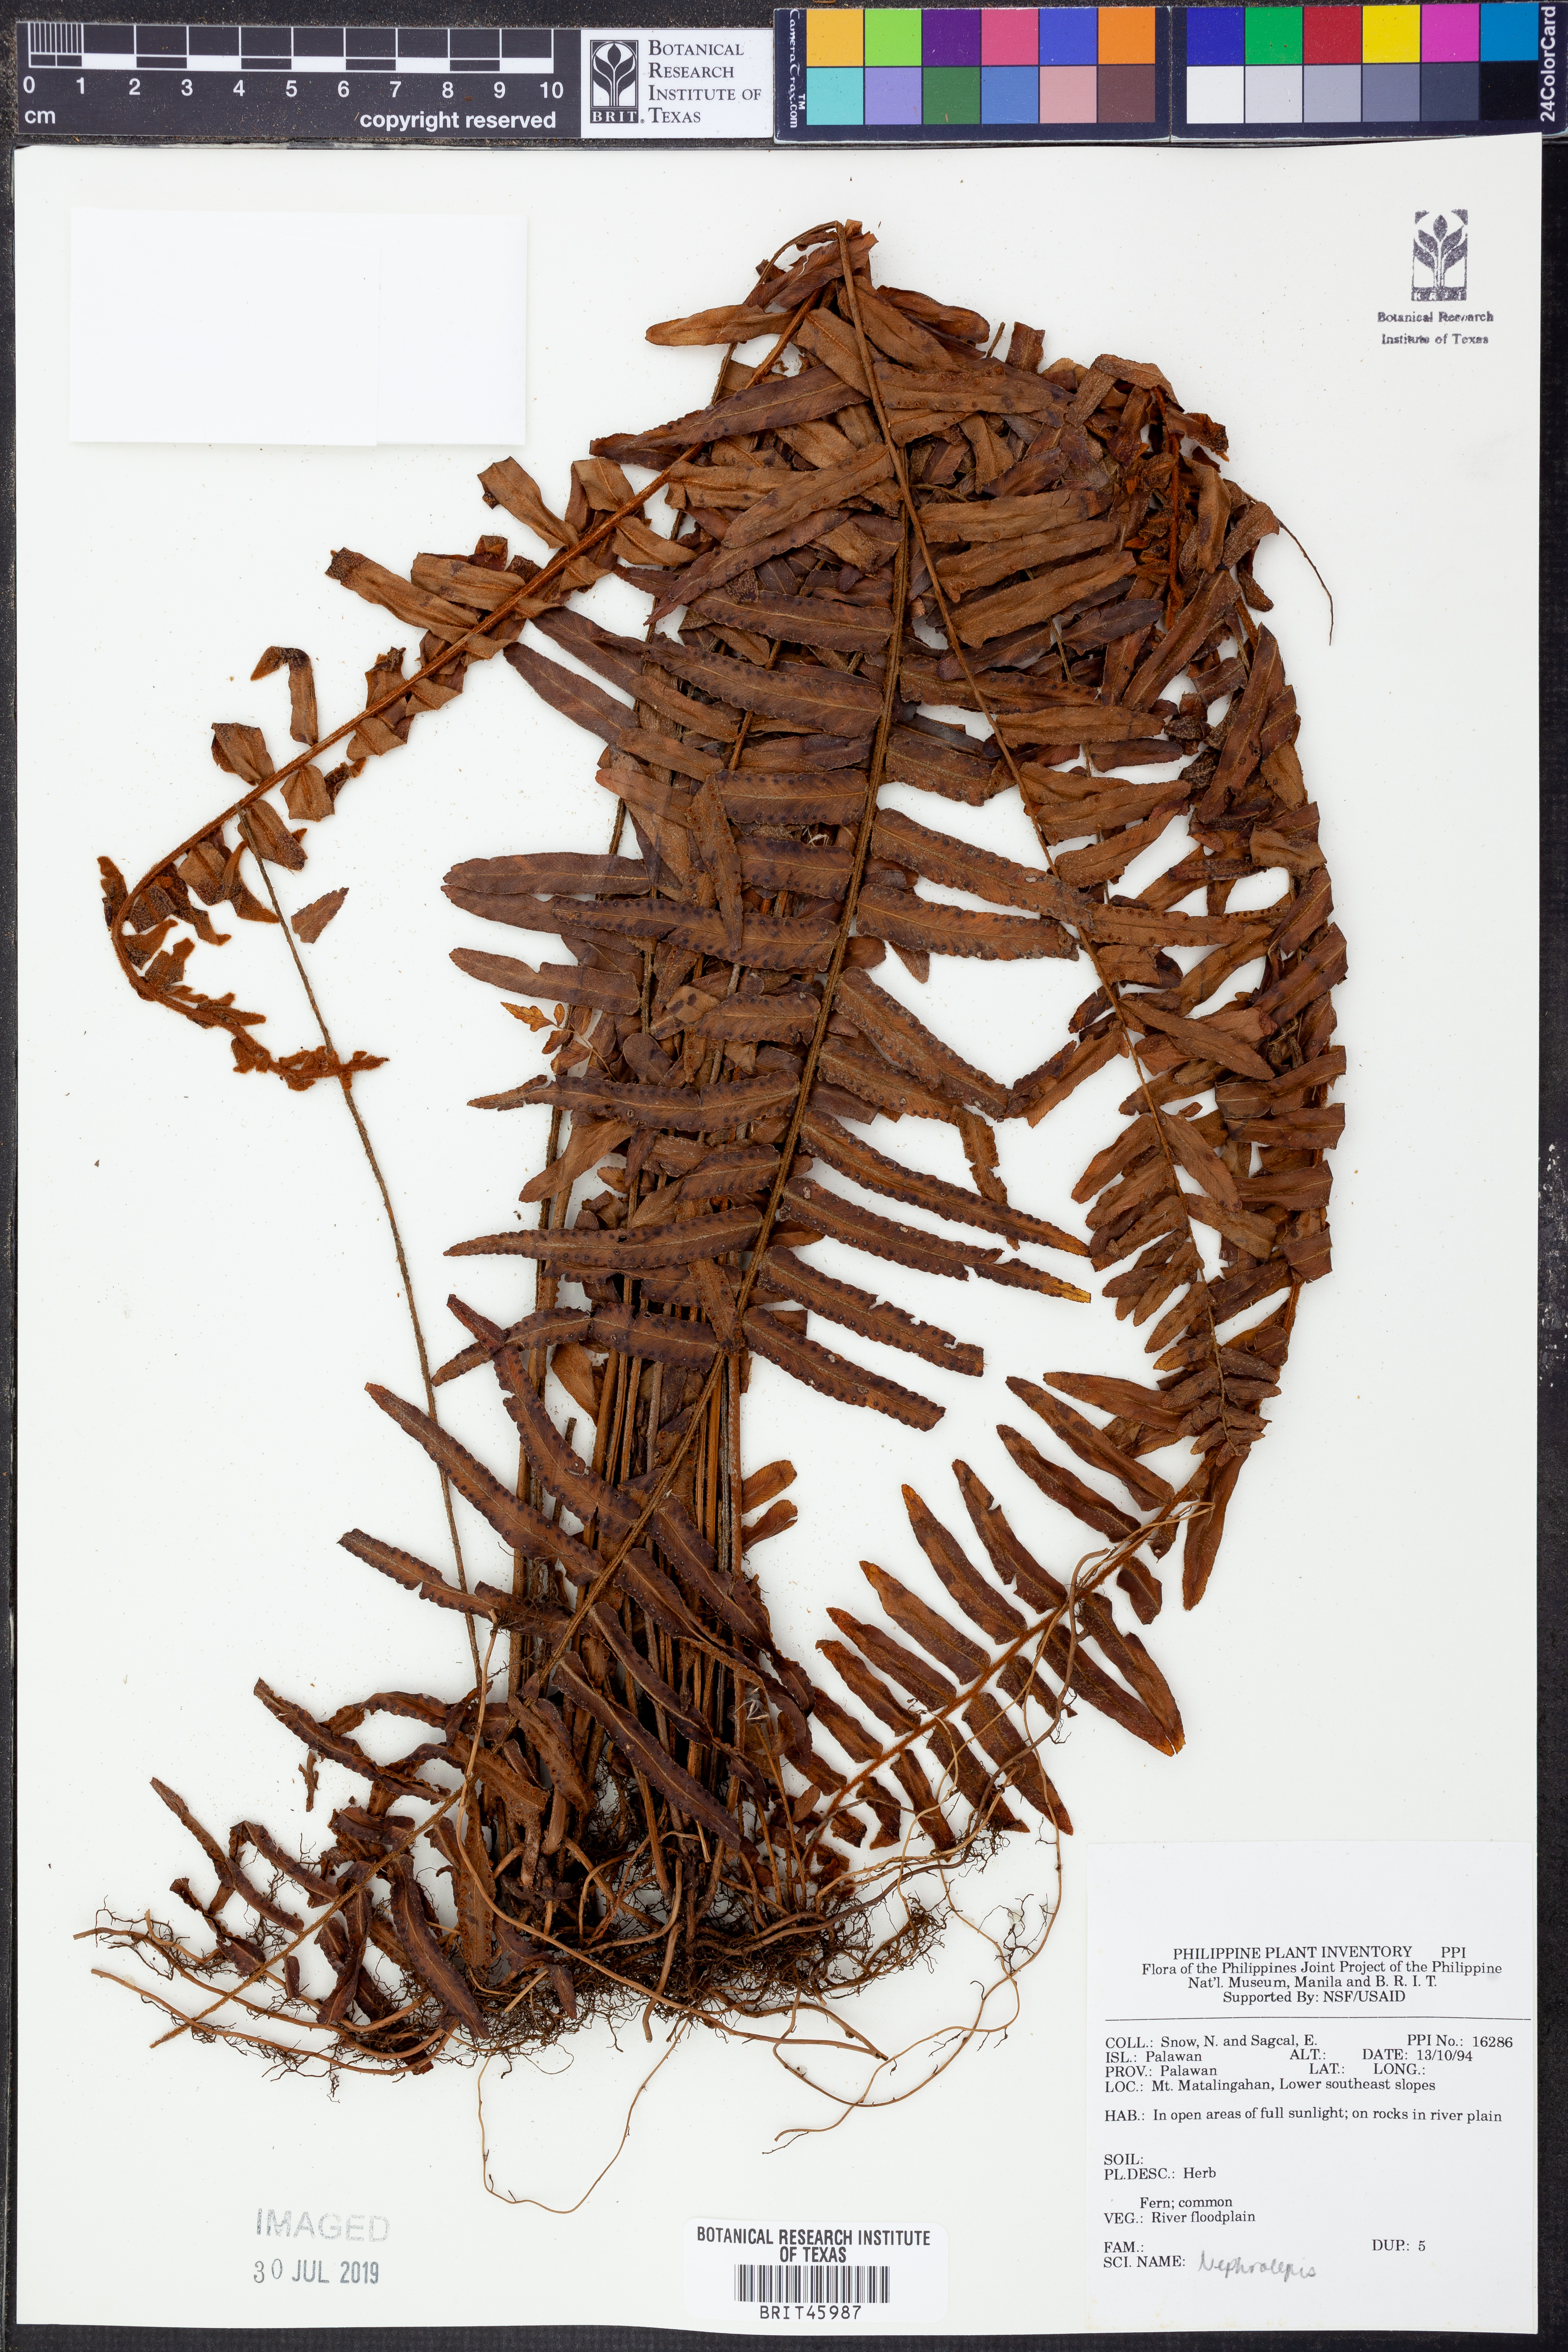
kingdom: Plantae
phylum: Tracheophyta
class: Polypodiopsida
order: Polypodiales
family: Nephrolepidaceae
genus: Nephrolepis
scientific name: Nephrolepis
